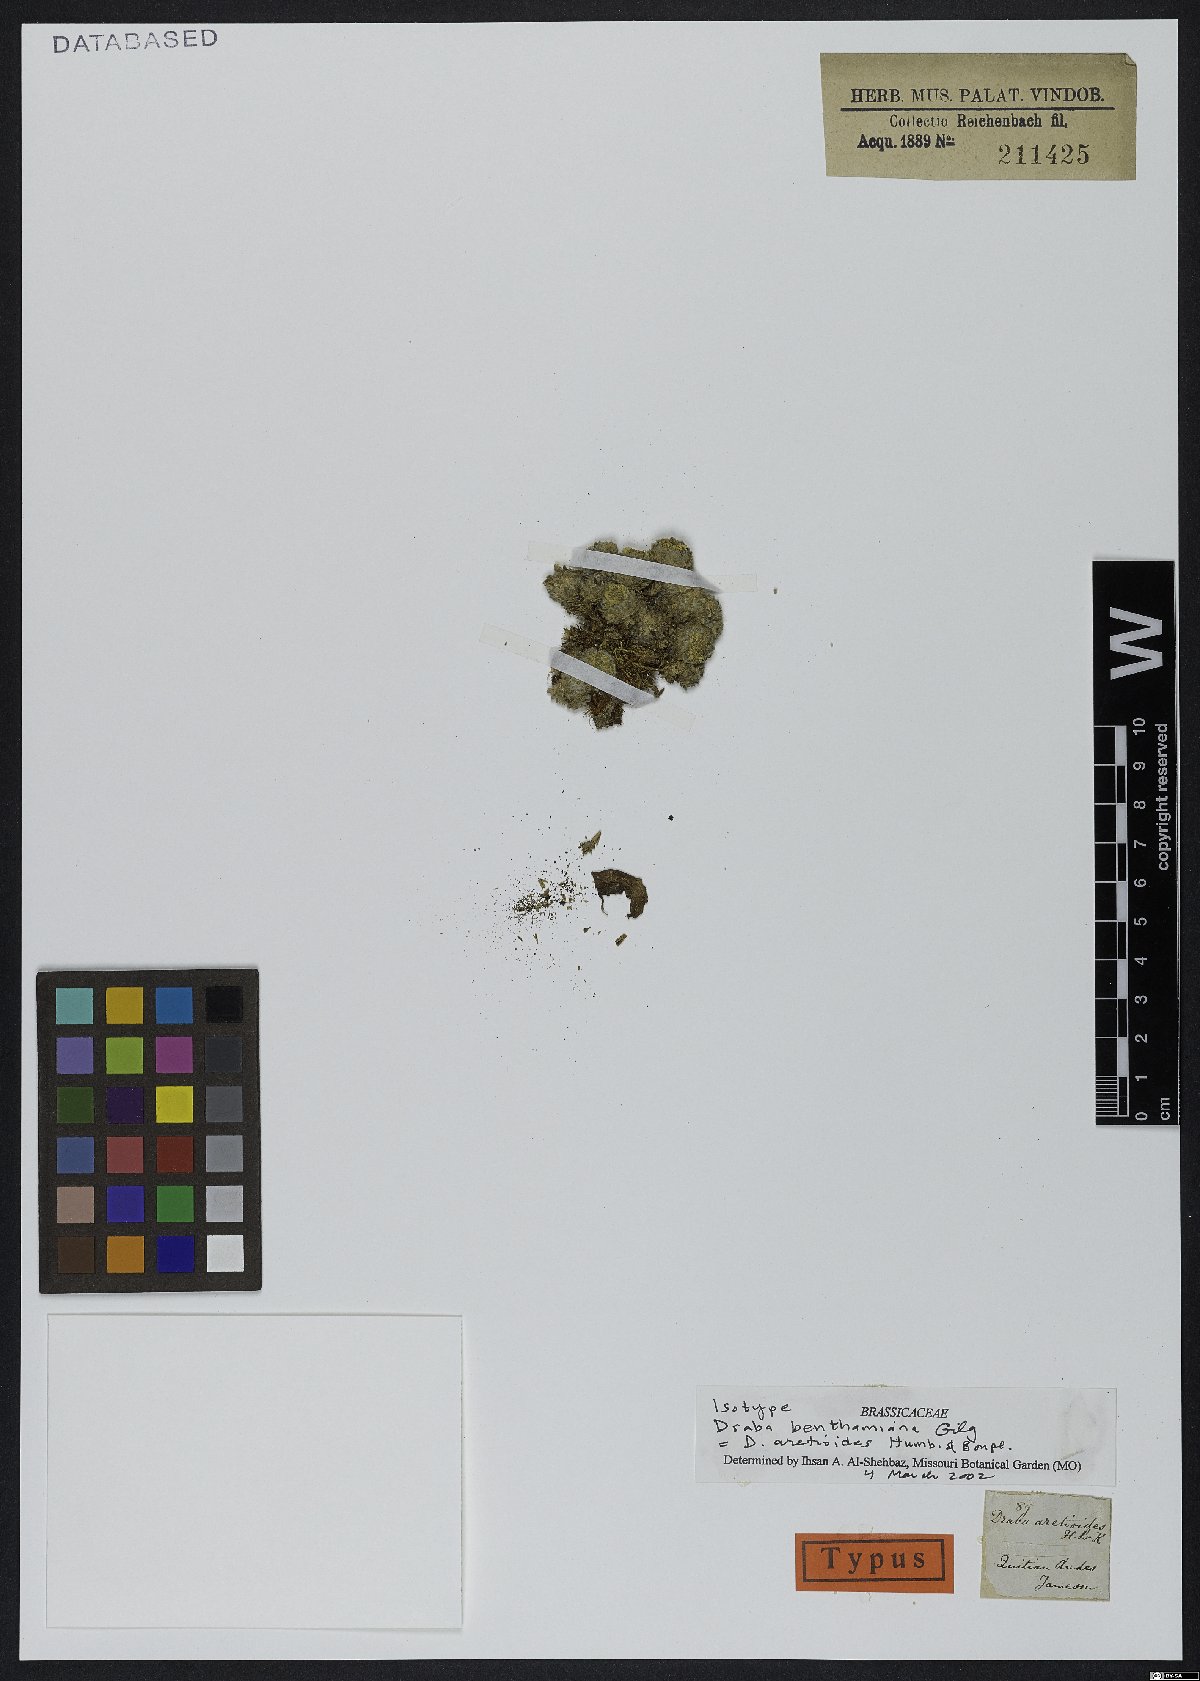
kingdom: Plantae
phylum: Tracheophyta
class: Magnoliopsida
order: Brassicales
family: Brassicaceae
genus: Draba
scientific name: Draba aretioides
